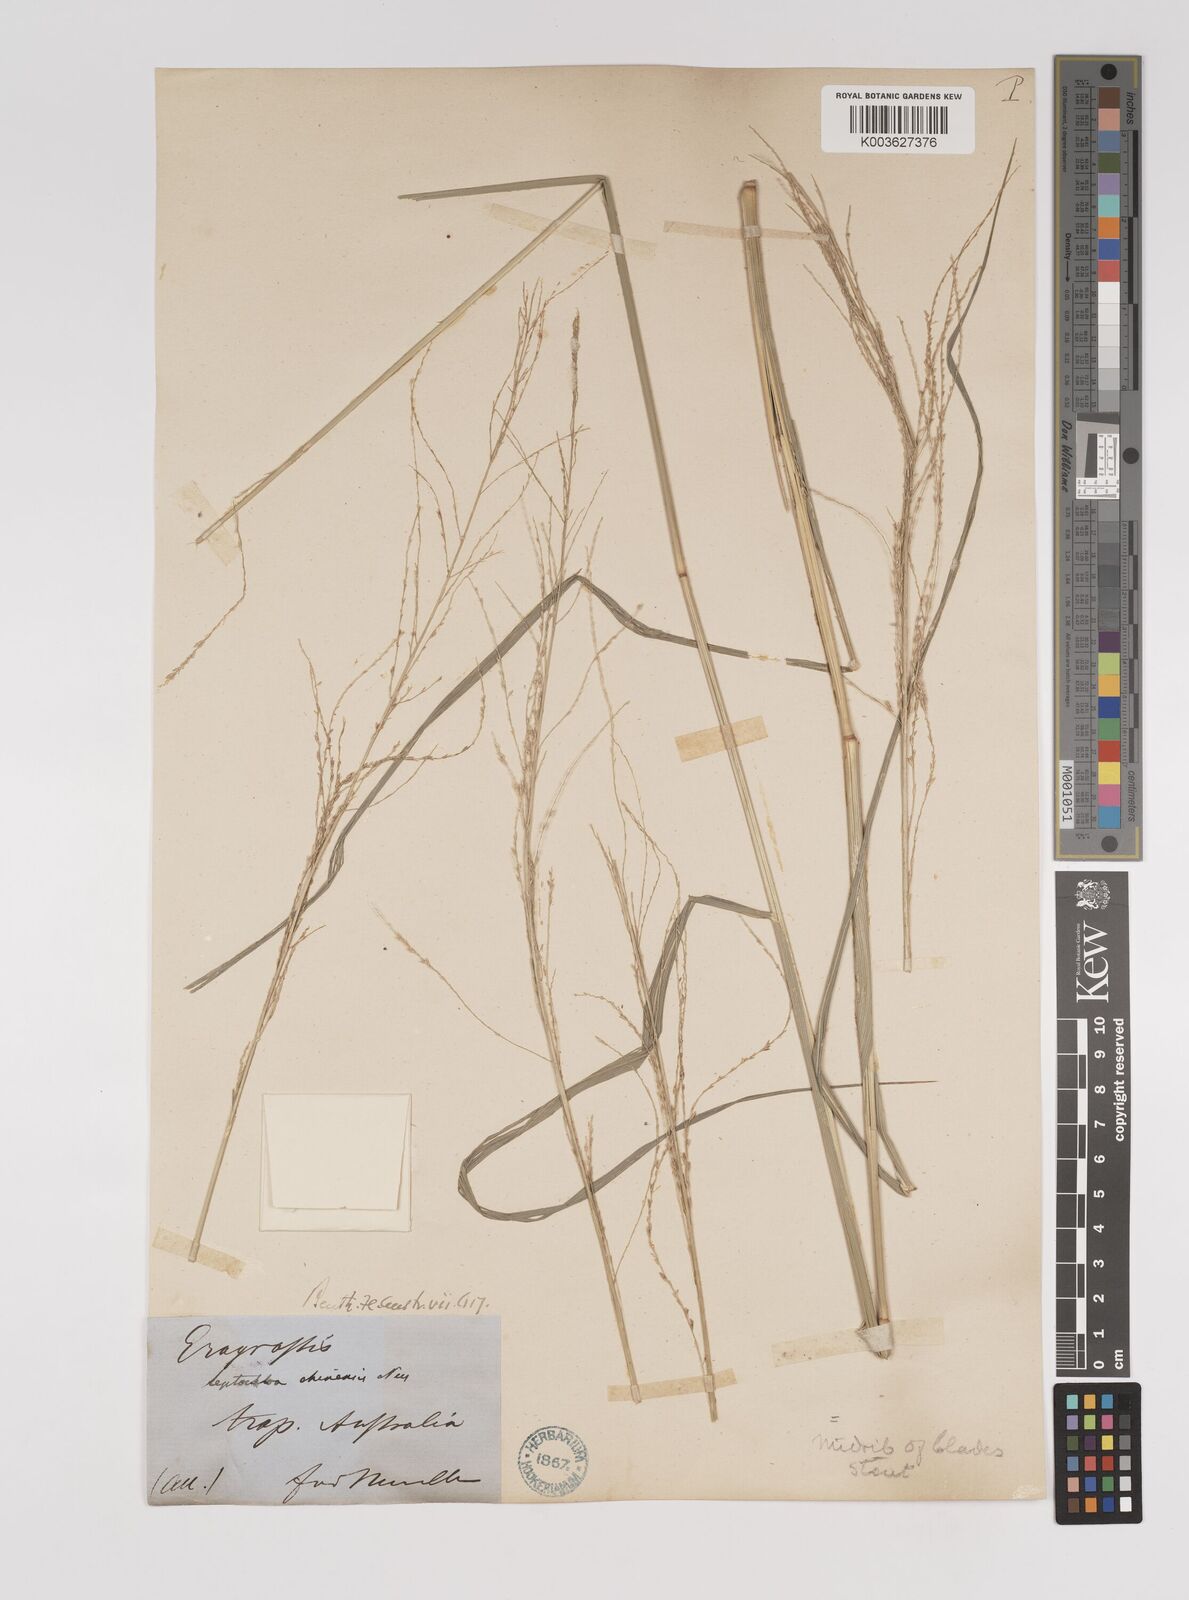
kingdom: Plantae
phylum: Tracheophyta
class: Liliopsida
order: Poales
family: Poaceae
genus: Leptochloa
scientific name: Leptochloa decipiens
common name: Australian sprangletop
